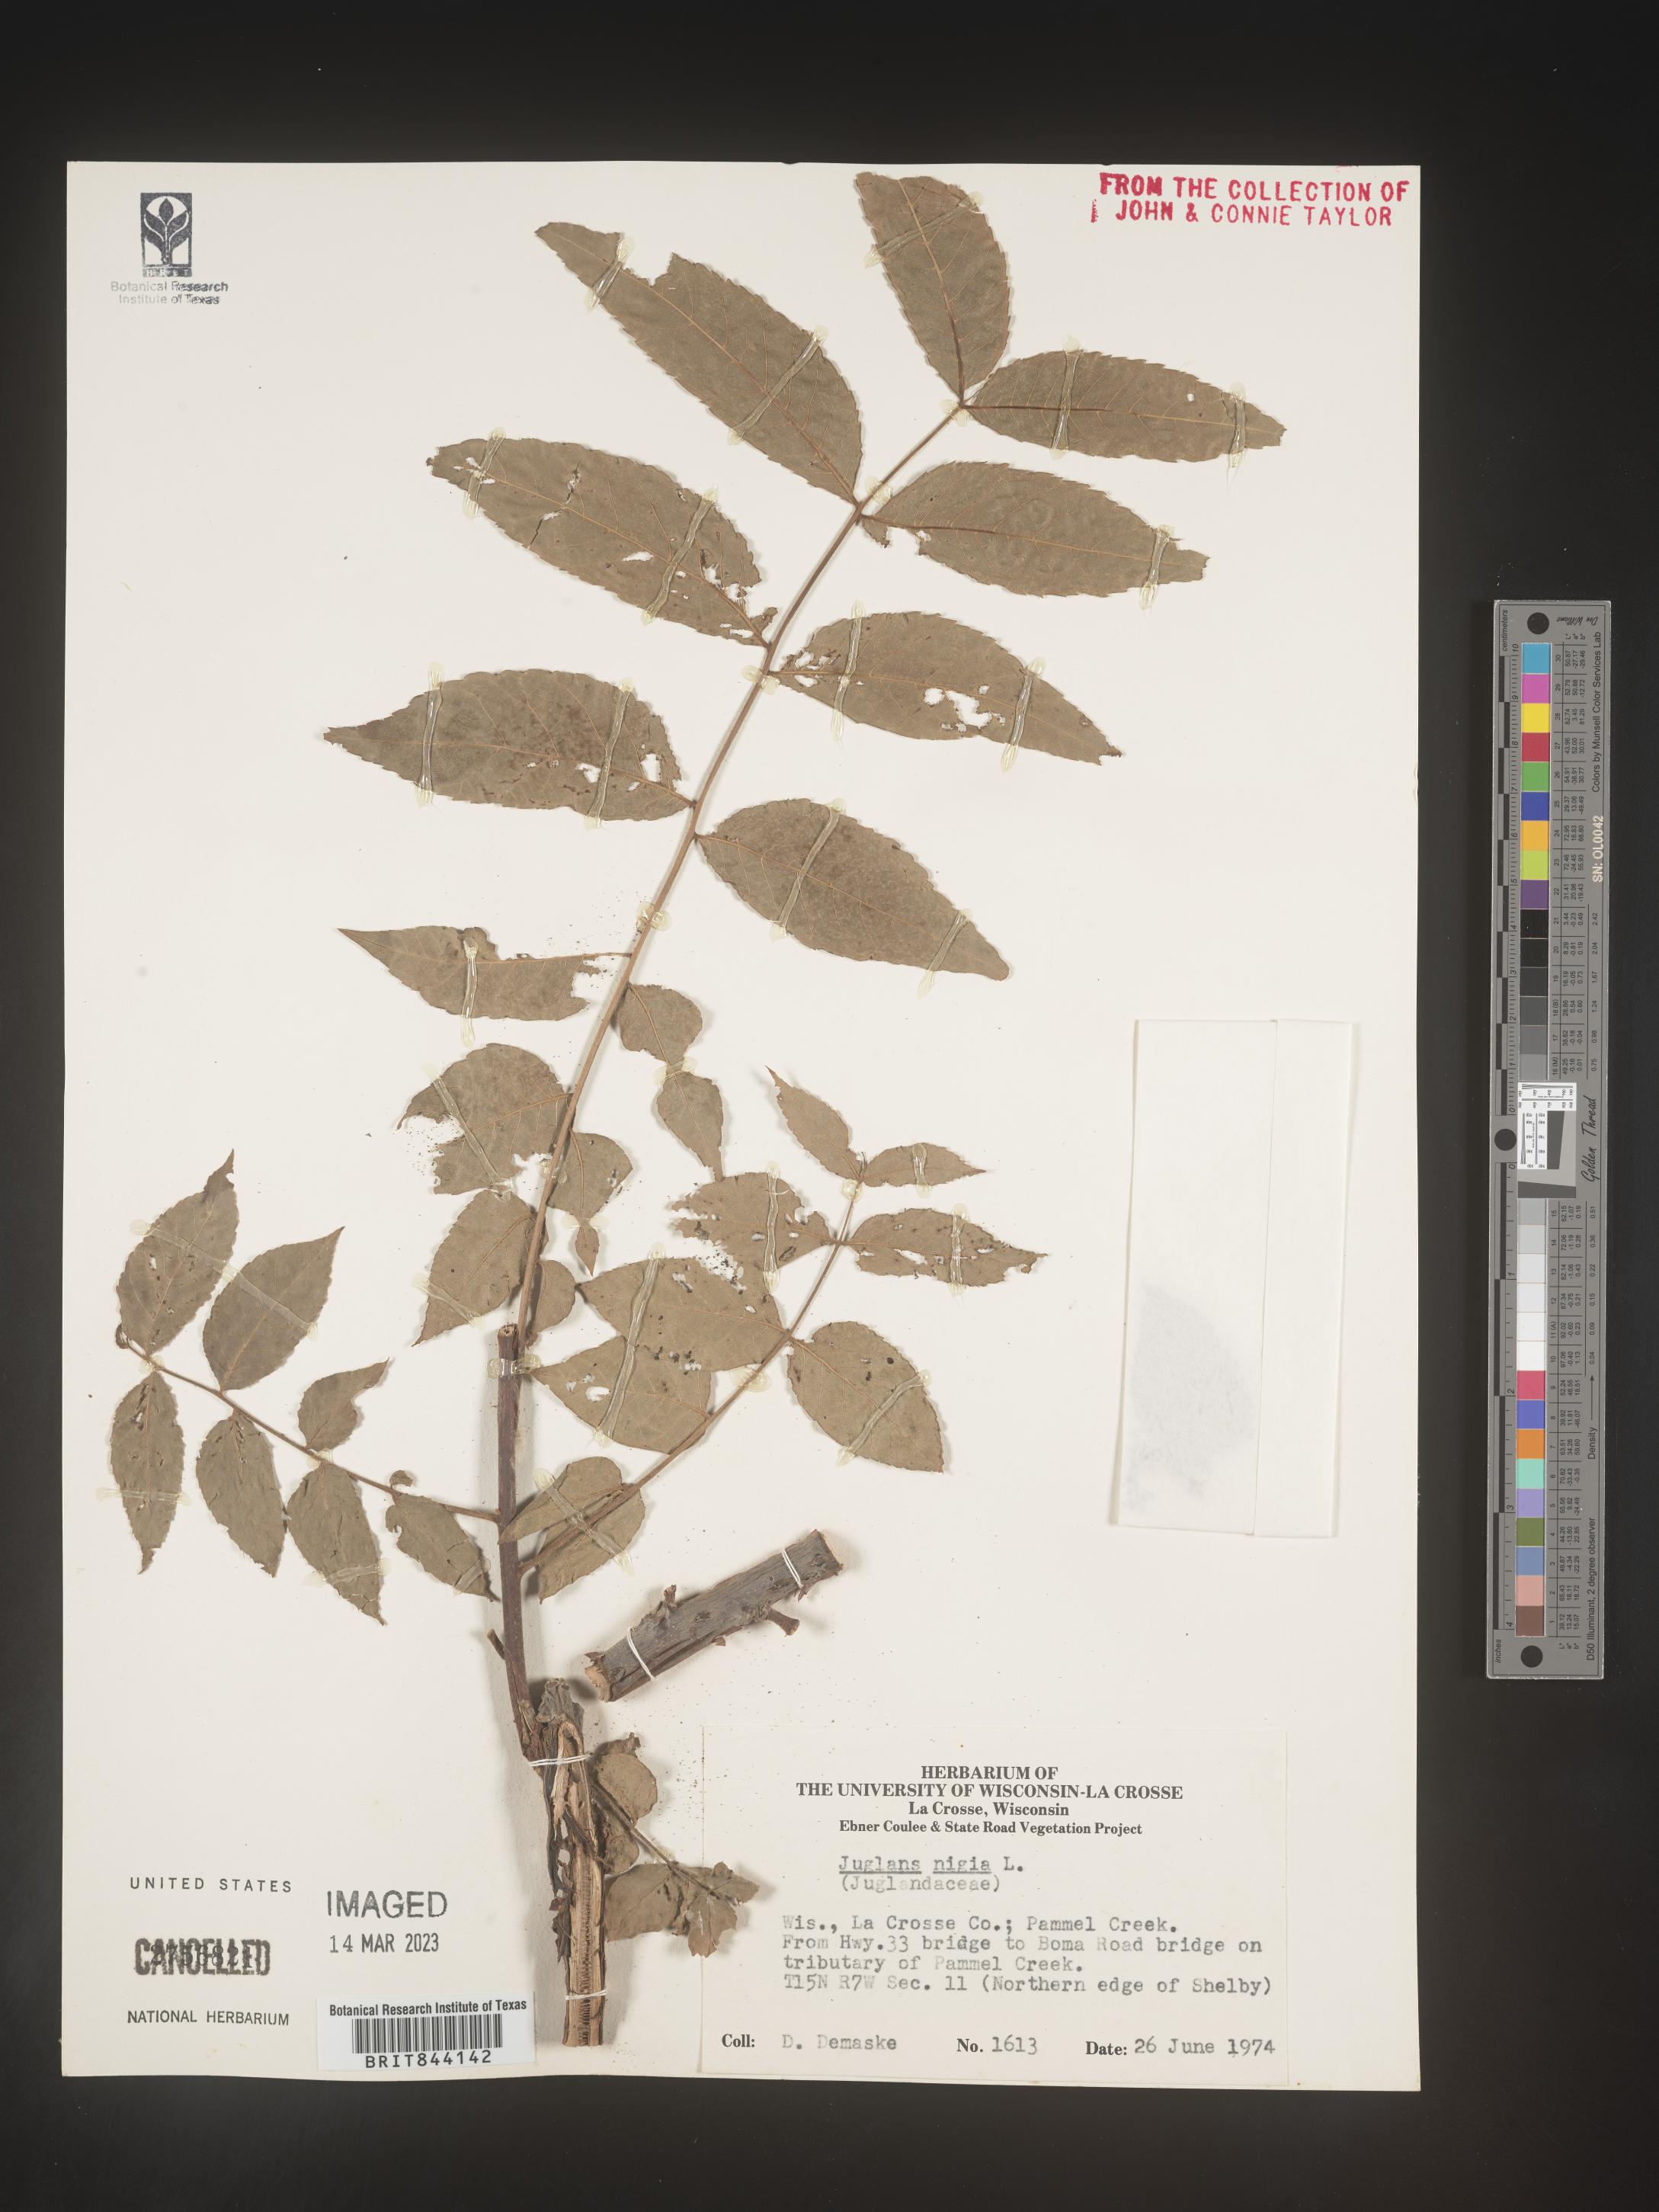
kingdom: Plantae
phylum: Tracheophyta
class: Magnoliopsida
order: Fagales
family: Juglandaceae
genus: Juglans
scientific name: Juglans nigra
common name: Black walnut
